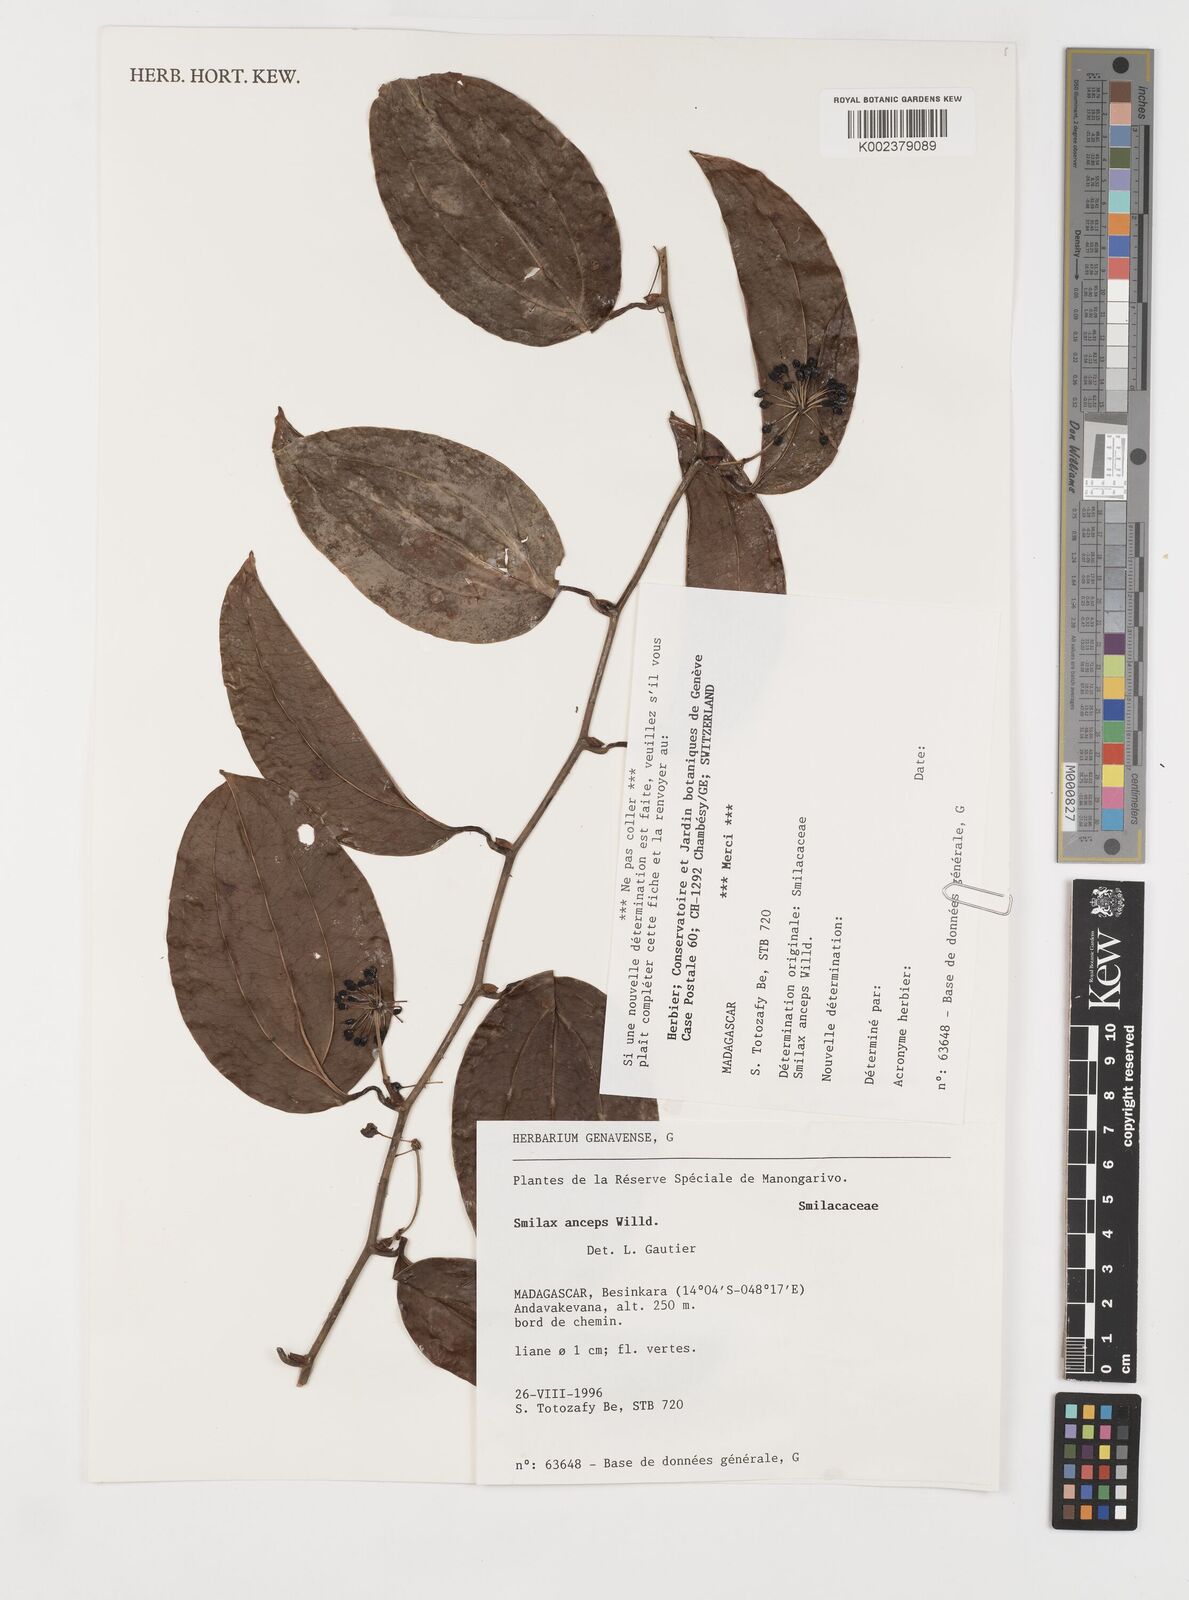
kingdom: Plantae
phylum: Tracheophyta
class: Liliopsida
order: Liliales
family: Smilacaceae
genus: Smilax
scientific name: Smilax anceps
